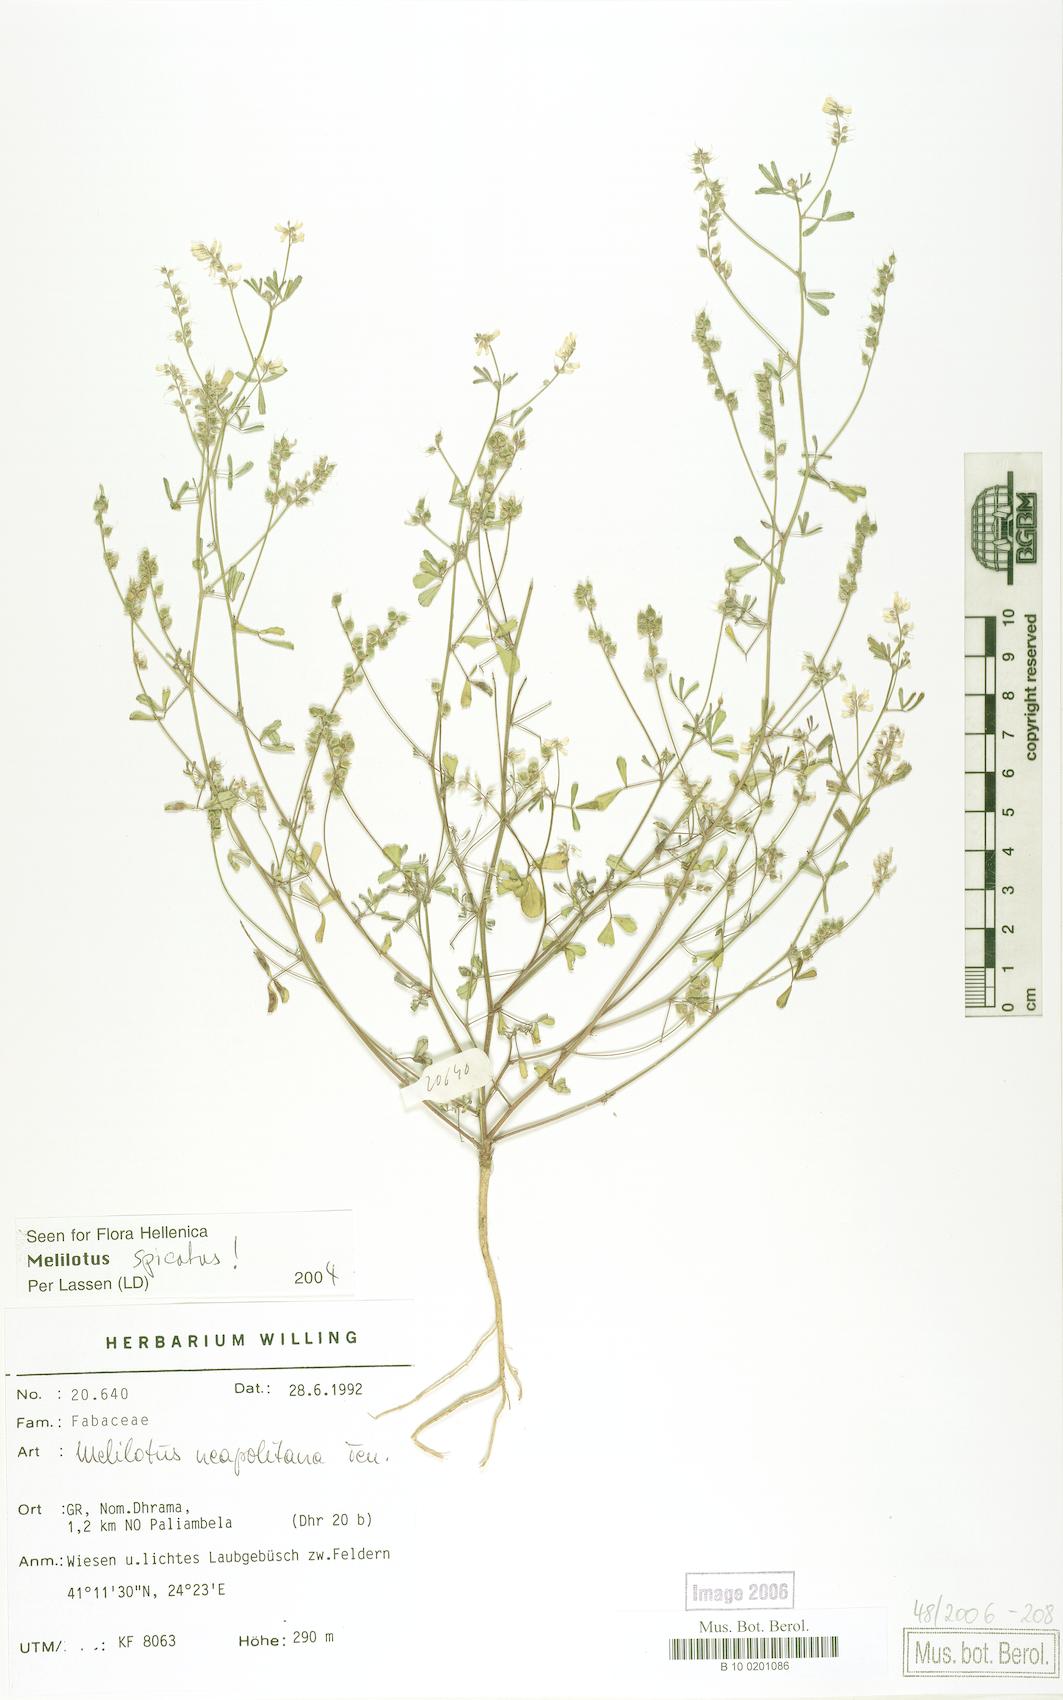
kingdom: Plantae
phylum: Tracheophyta
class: Magnoliopsida
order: Fabales
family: Fabaceae
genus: Melilotus
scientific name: Melilotus neapolitanus
